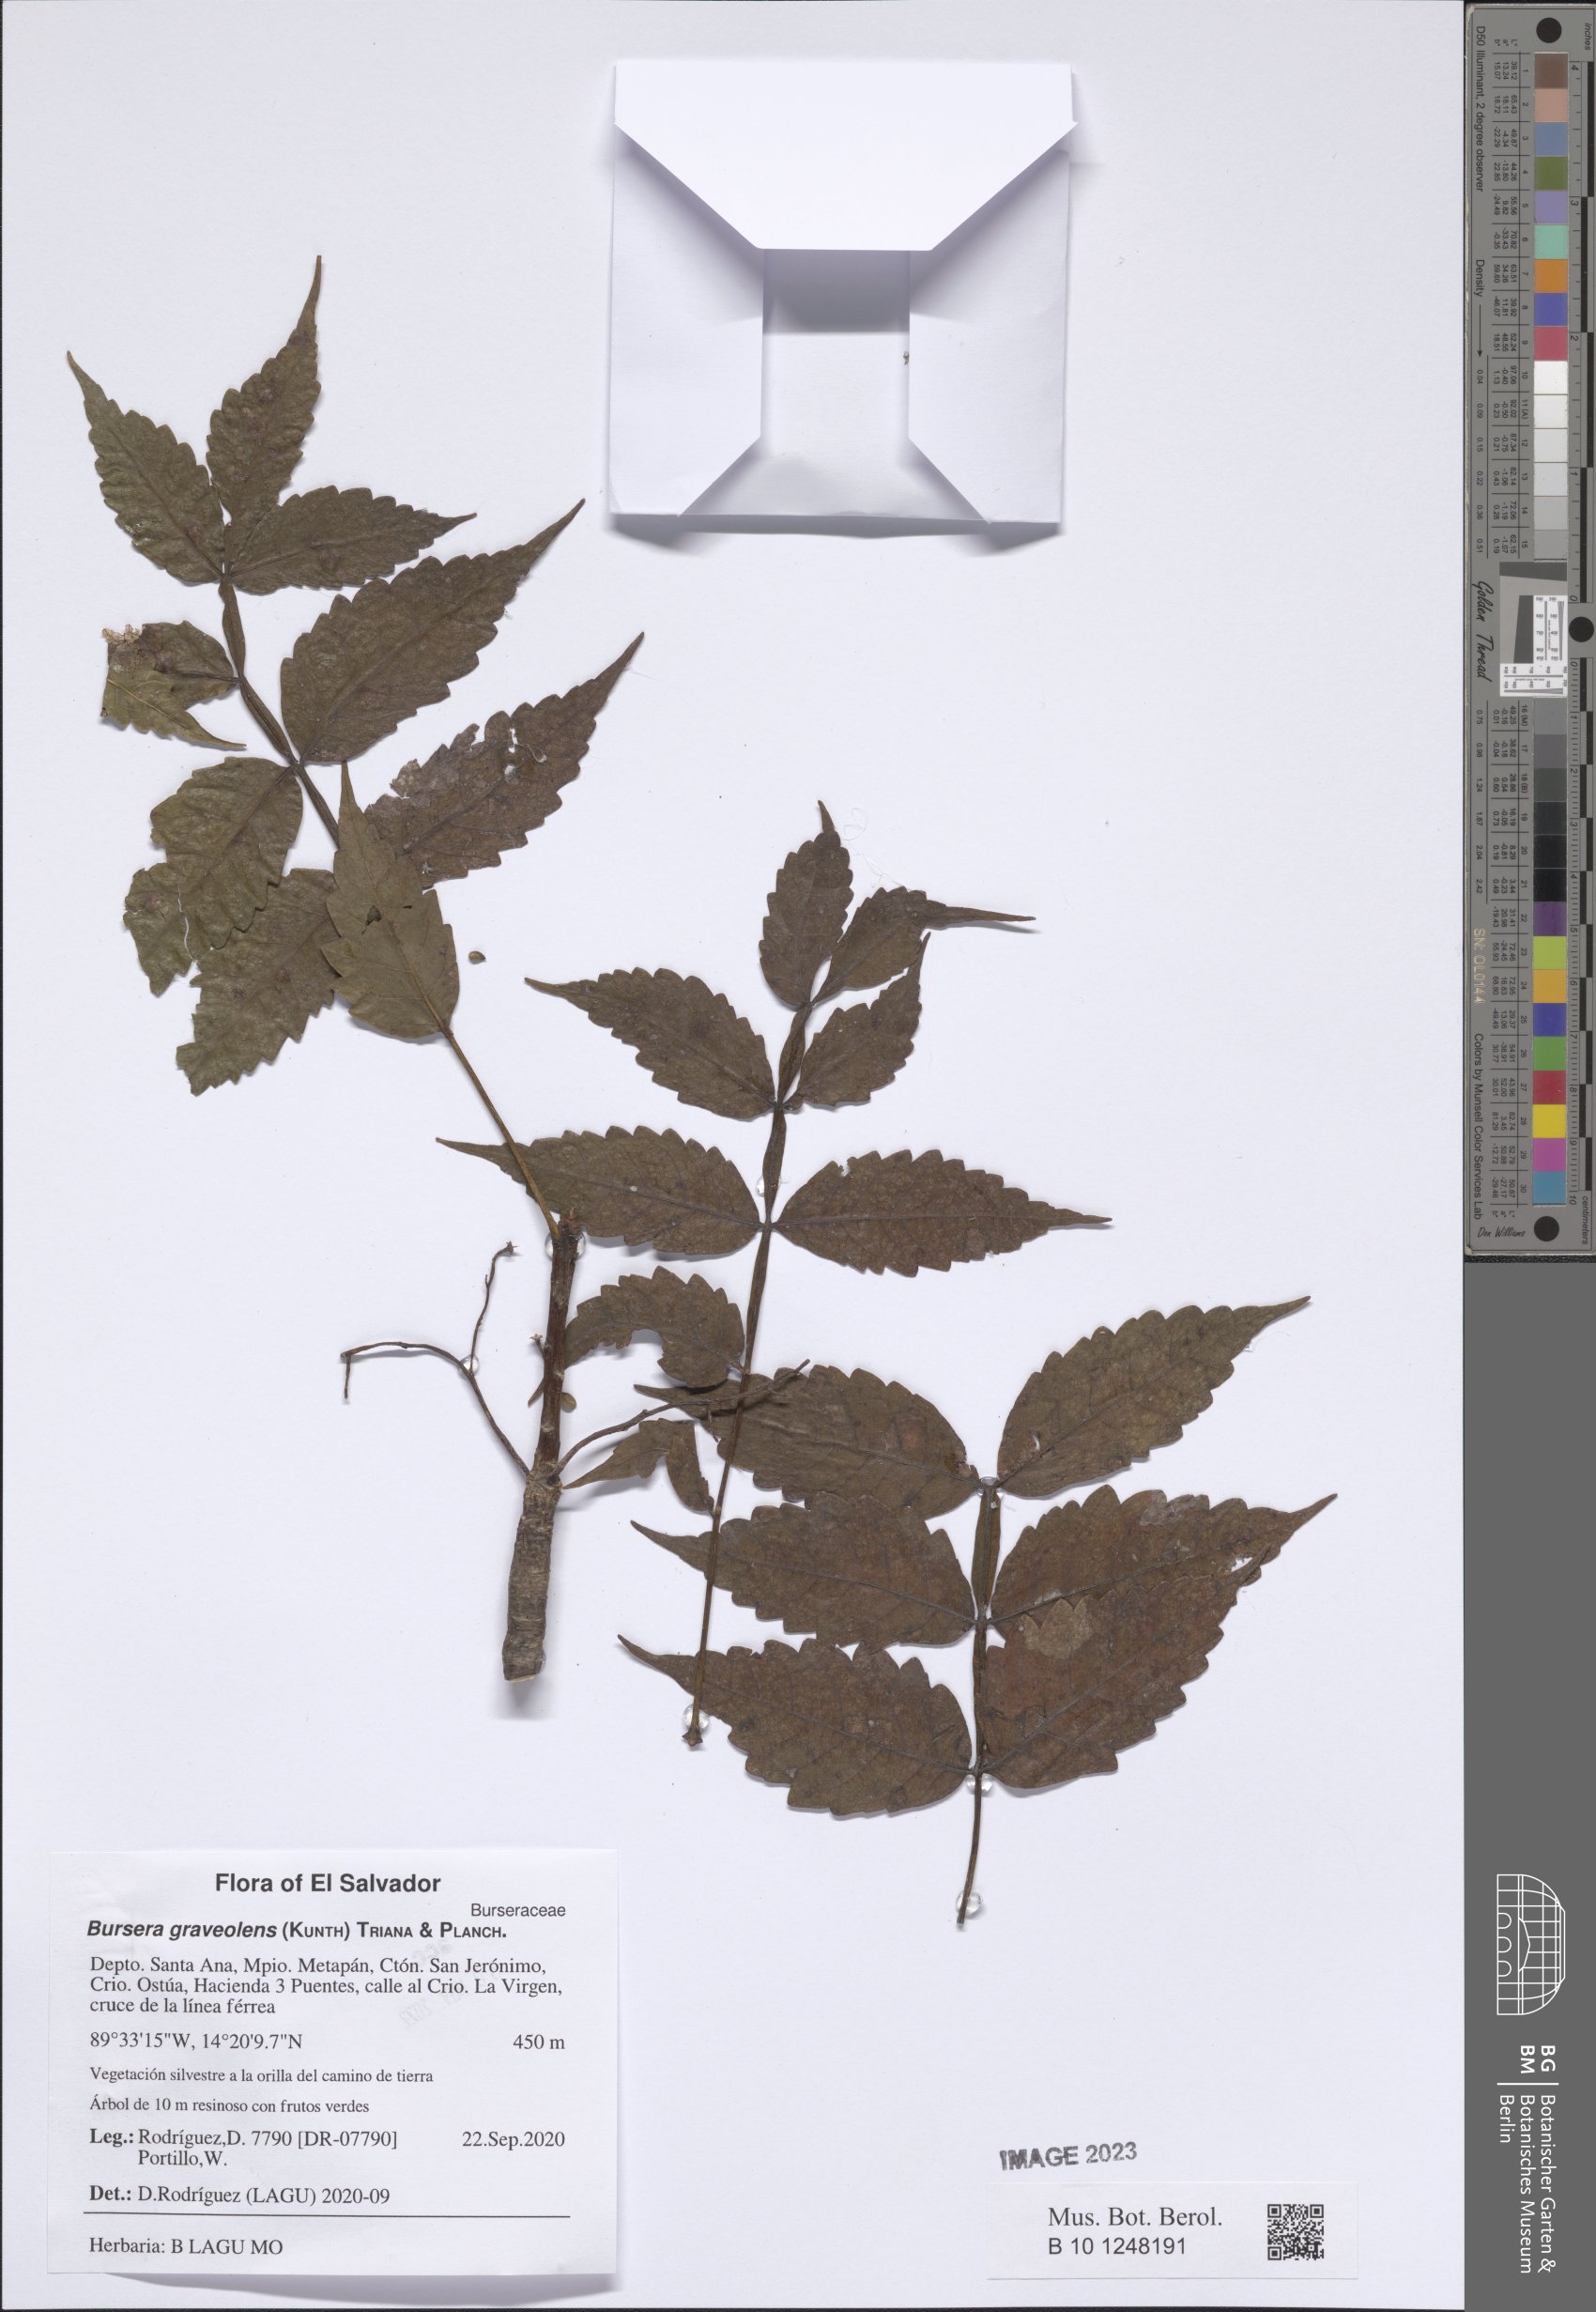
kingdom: Plantae
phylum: Tracheophyta
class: Magnoliopsida
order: Sapindales
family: Burseraceae
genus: Bursera
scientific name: Bursera graveolens
